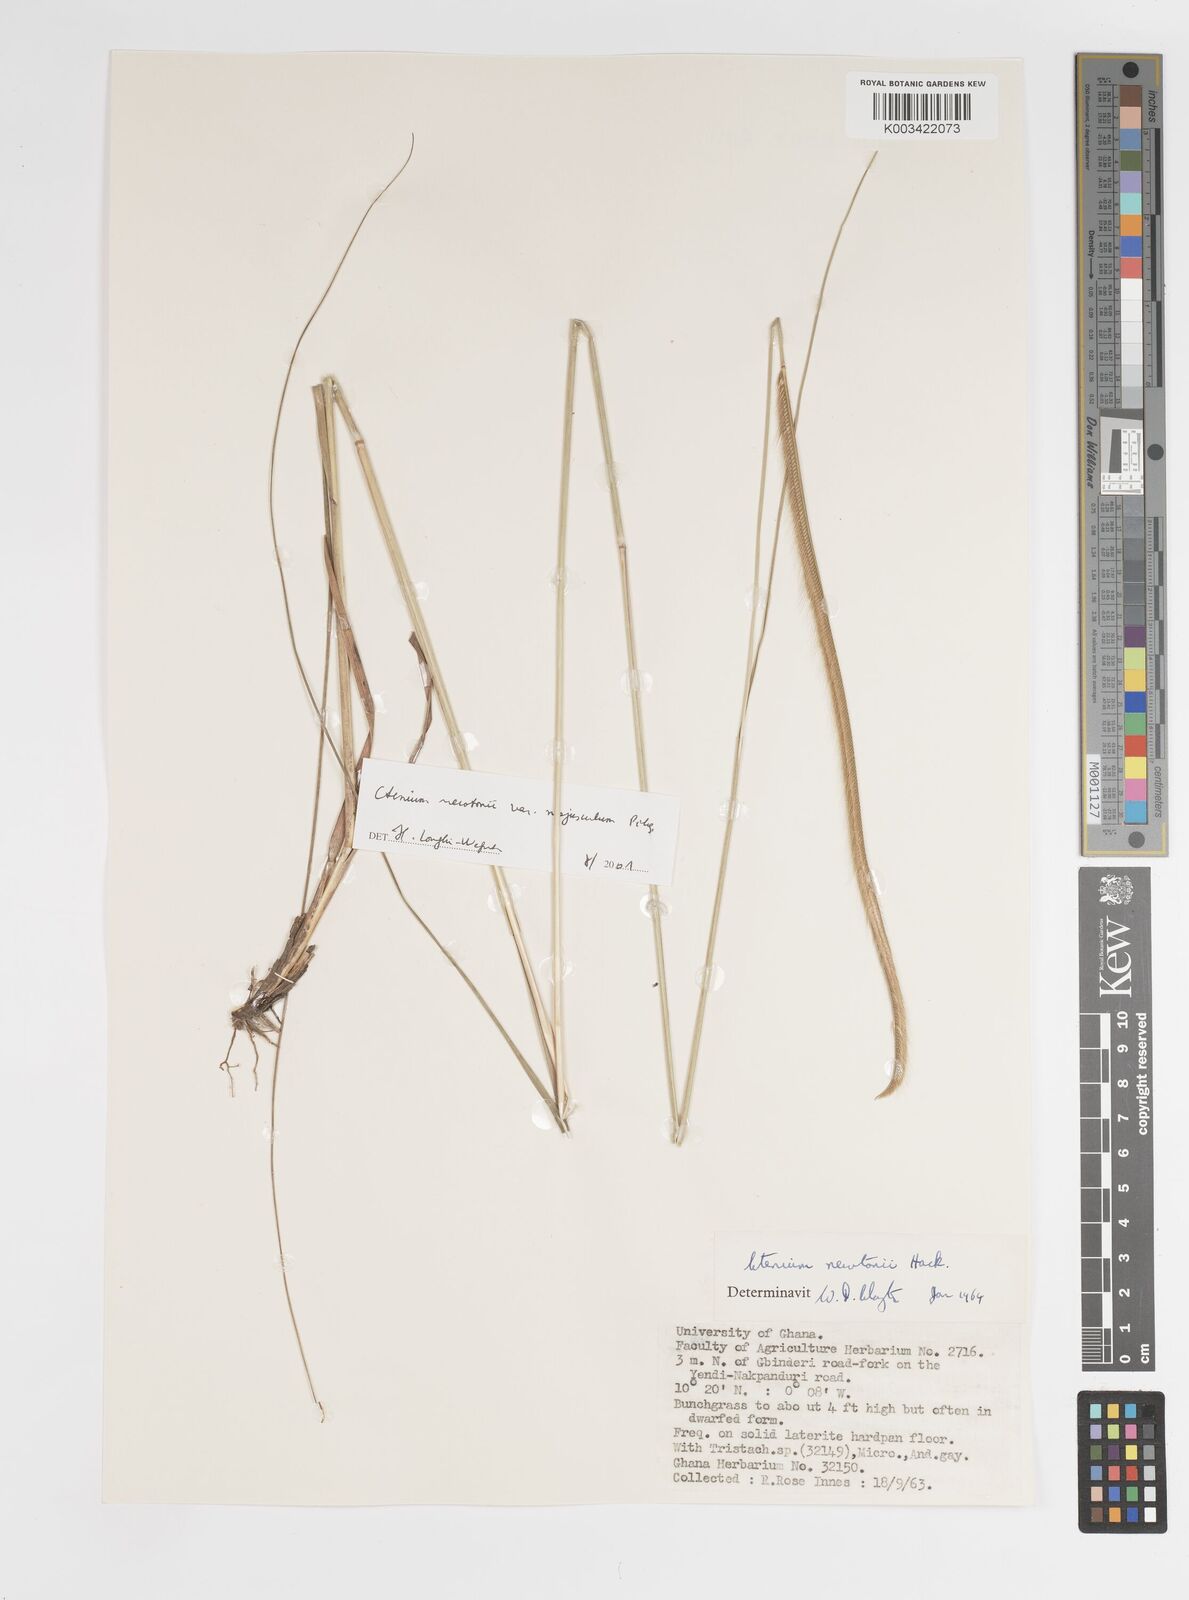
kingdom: Plantae
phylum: Tracheophyta
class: Liliopsida
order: Poales
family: Poaceae
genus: Ctenium
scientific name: Ctenium newtonii
